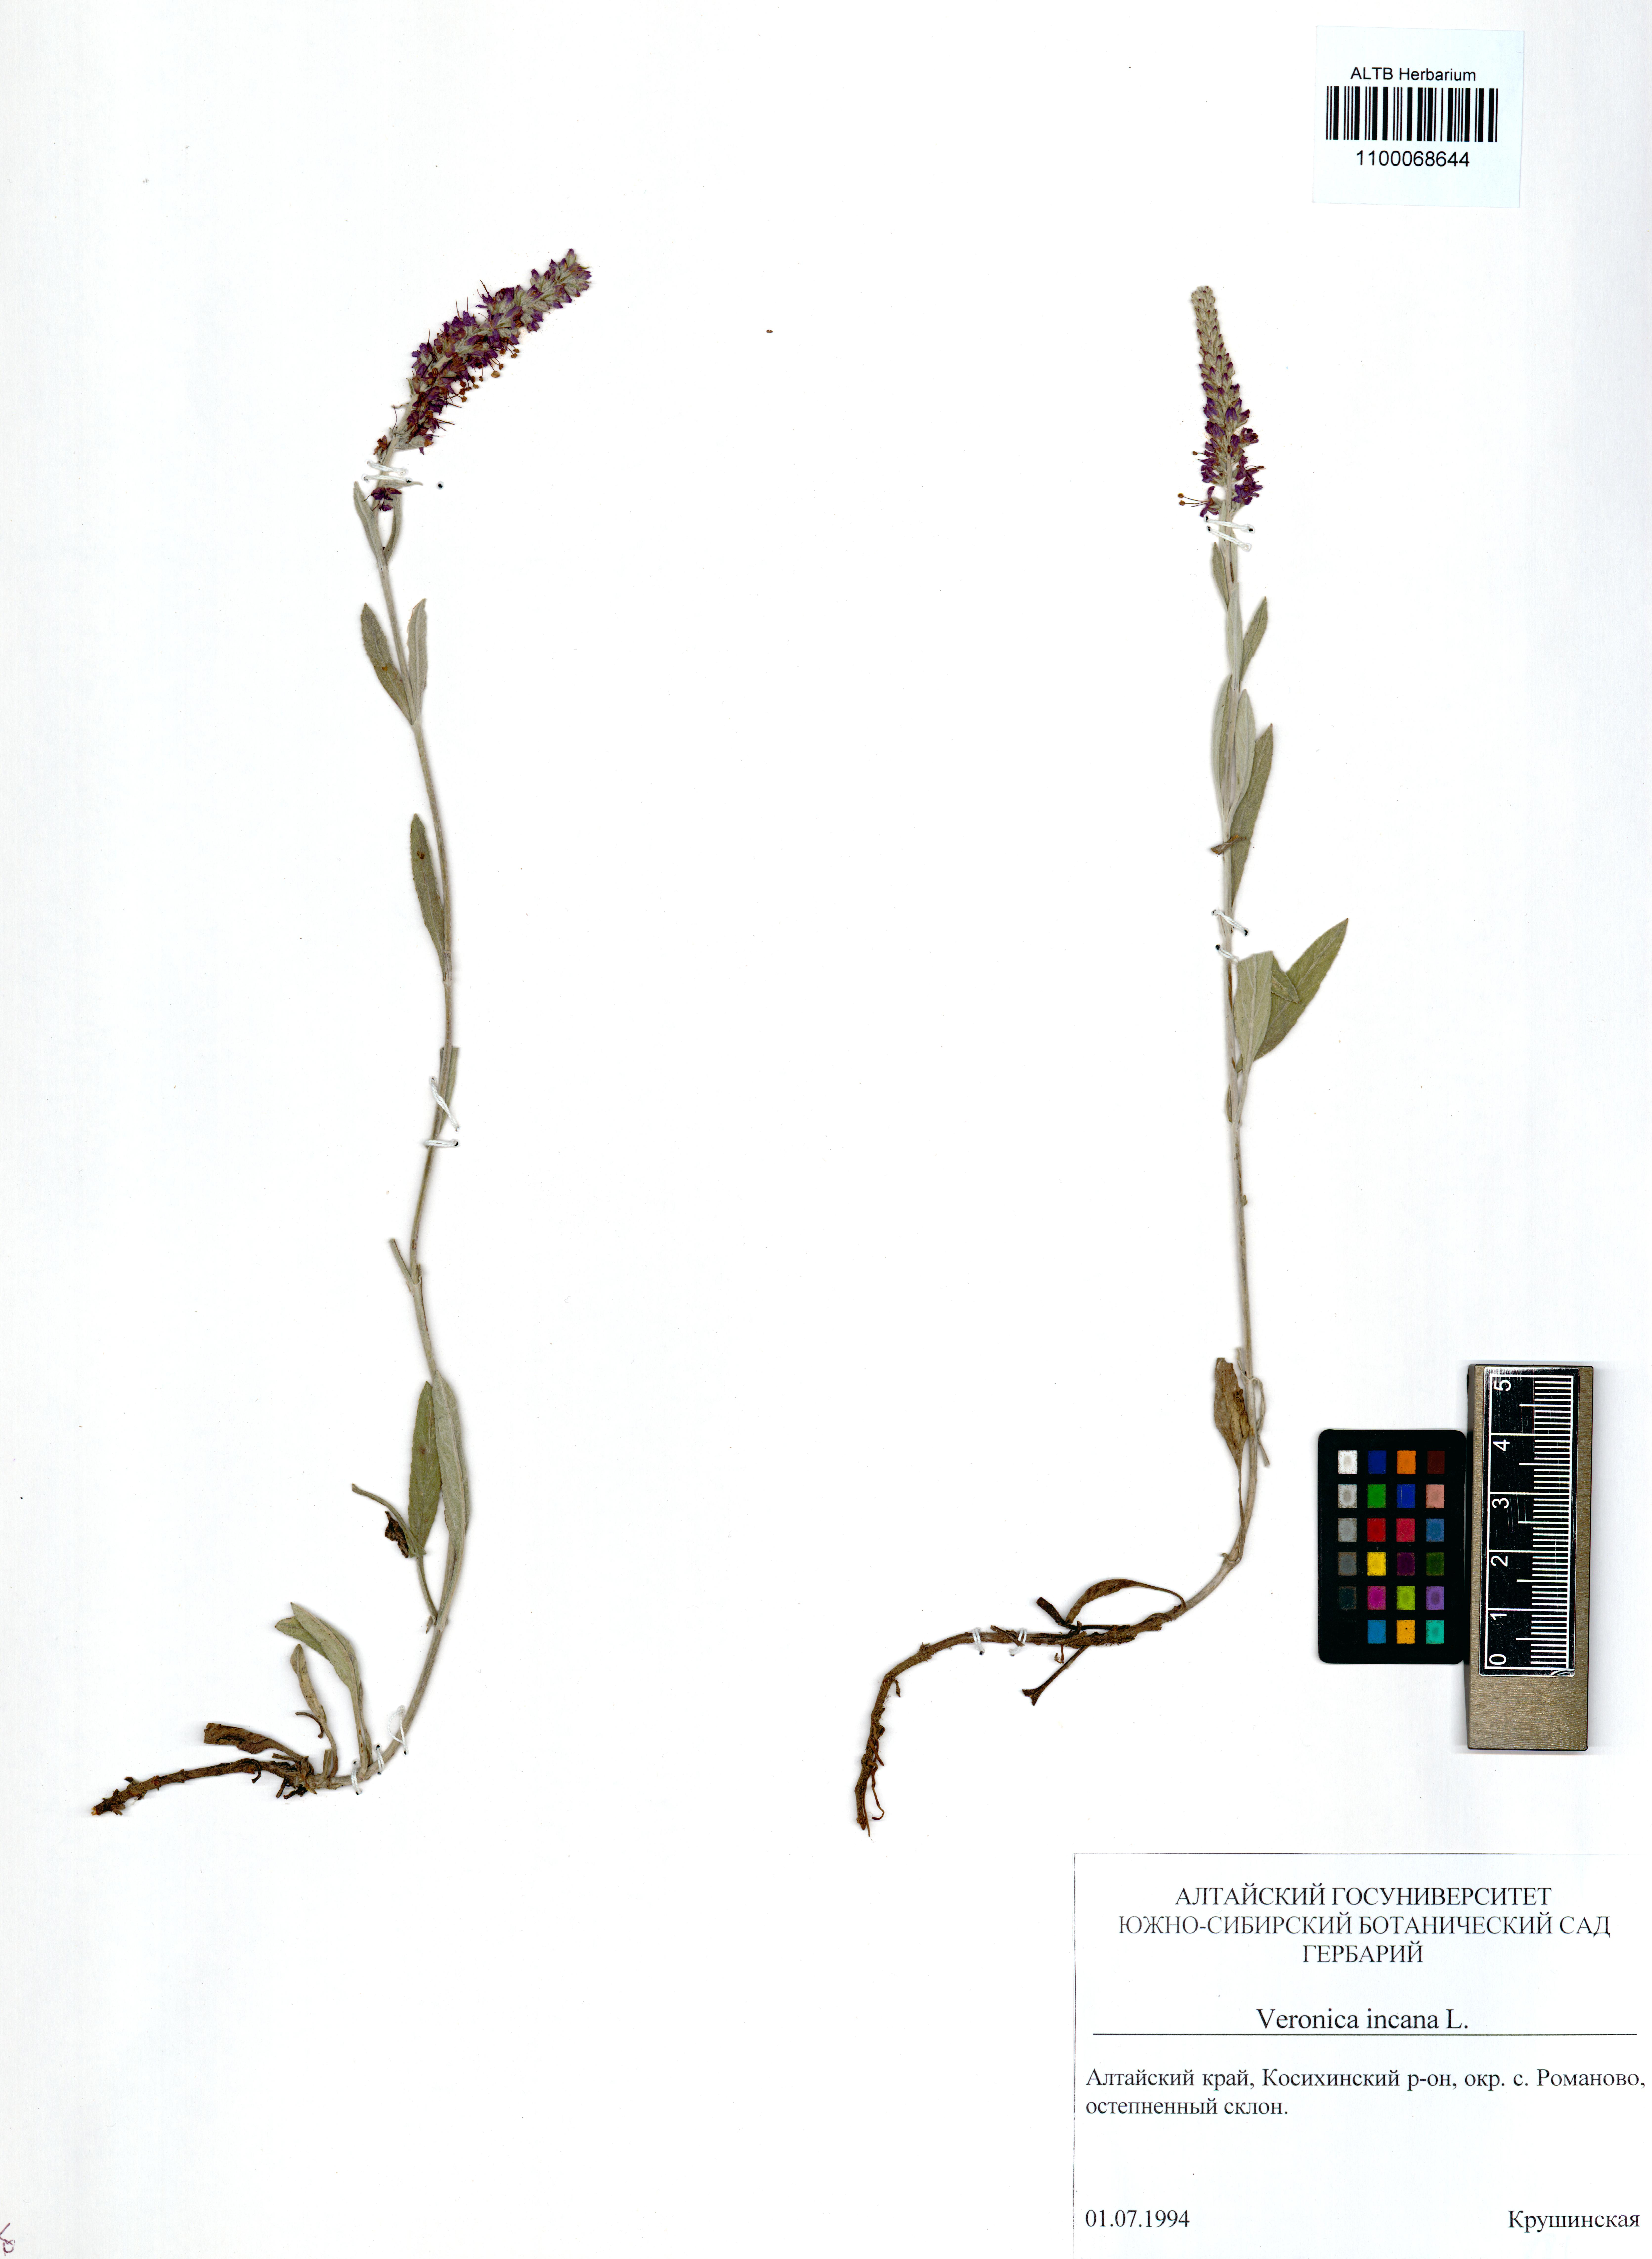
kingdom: Plantae
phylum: Tracheophyta
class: Magnoliopsida
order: Lamiales
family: Plantaginaceae
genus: Veronica
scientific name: Veronica incana
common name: Silver speedwell
